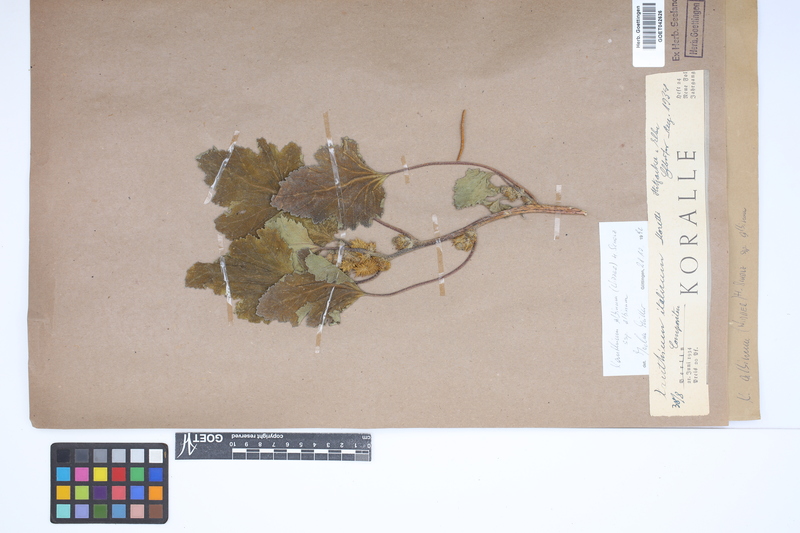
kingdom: Plantae
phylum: Tracheophyta
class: Magnoliopsida
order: Asterales
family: Asteraceae
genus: Xanthium
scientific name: Xanthium orientale
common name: Californian burr
